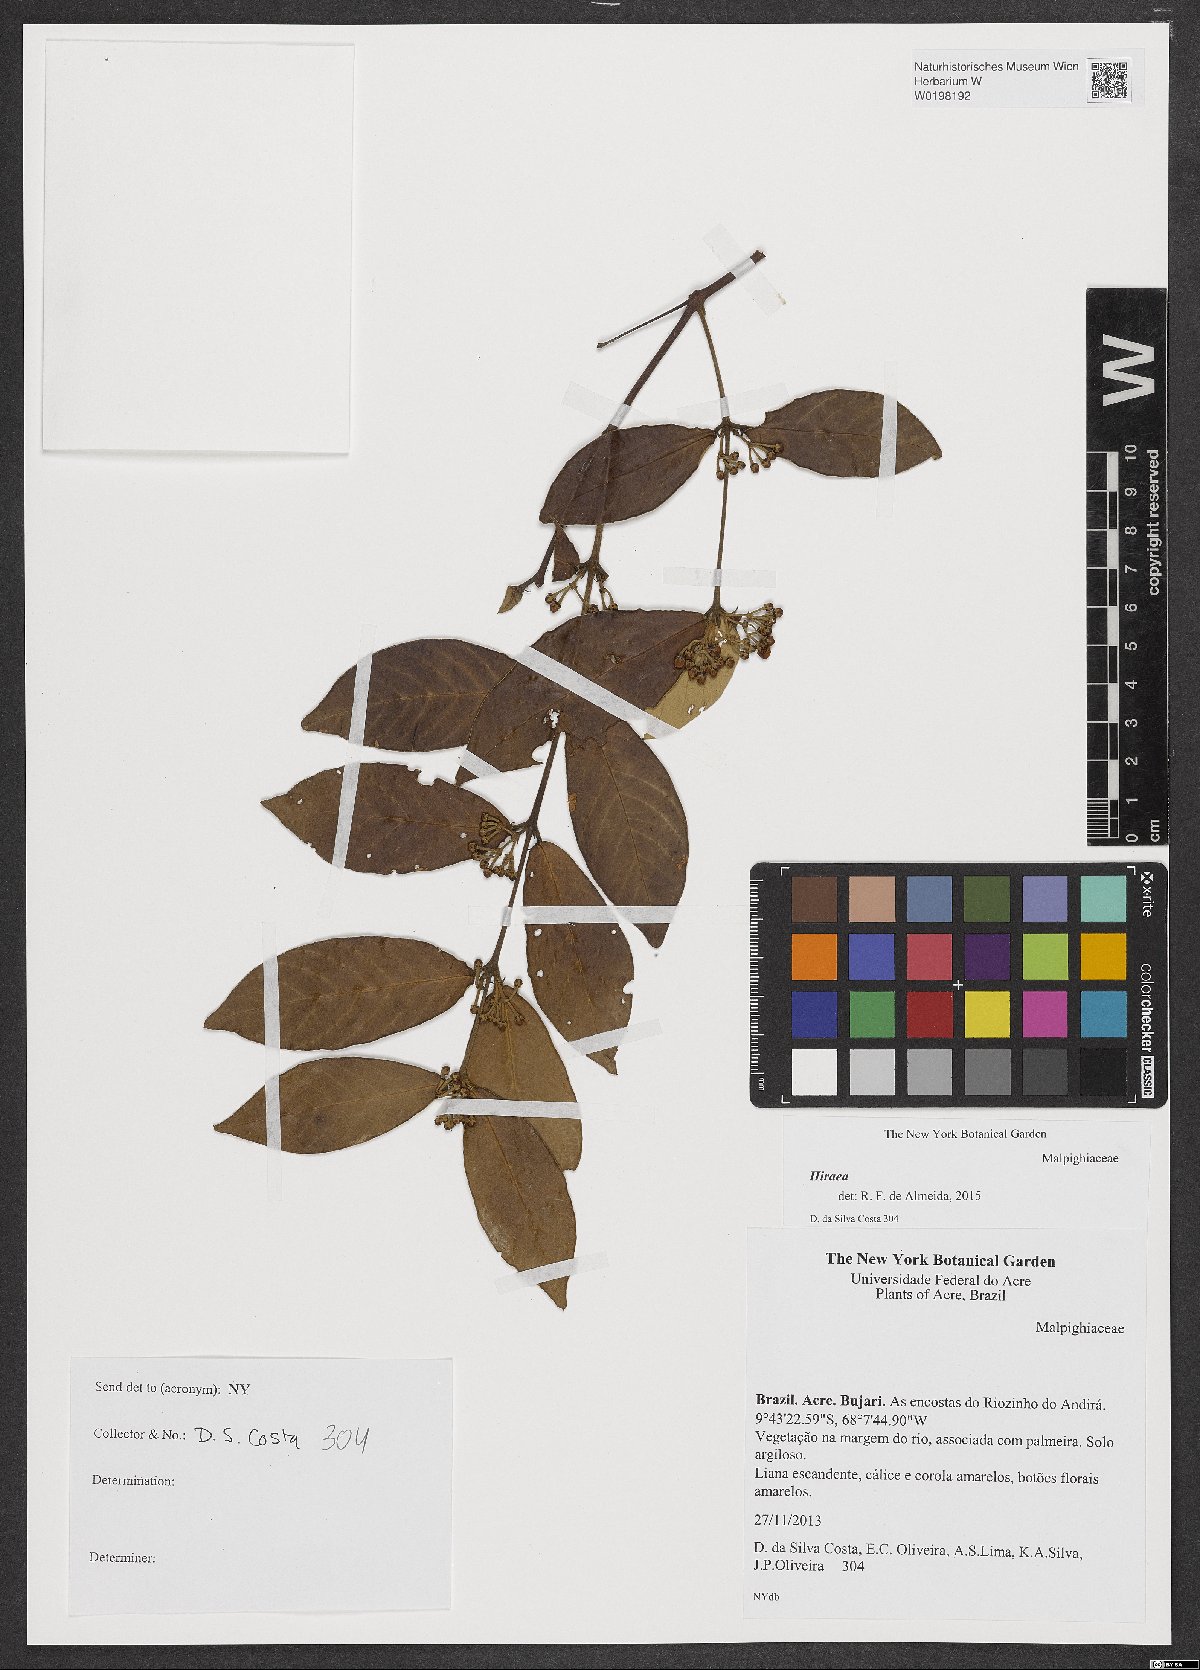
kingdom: Plantae
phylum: Tracheophyta
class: Magnoliopsida
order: Malpighiales
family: Malpighiaceae
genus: Hiraea
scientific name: Hiraea
